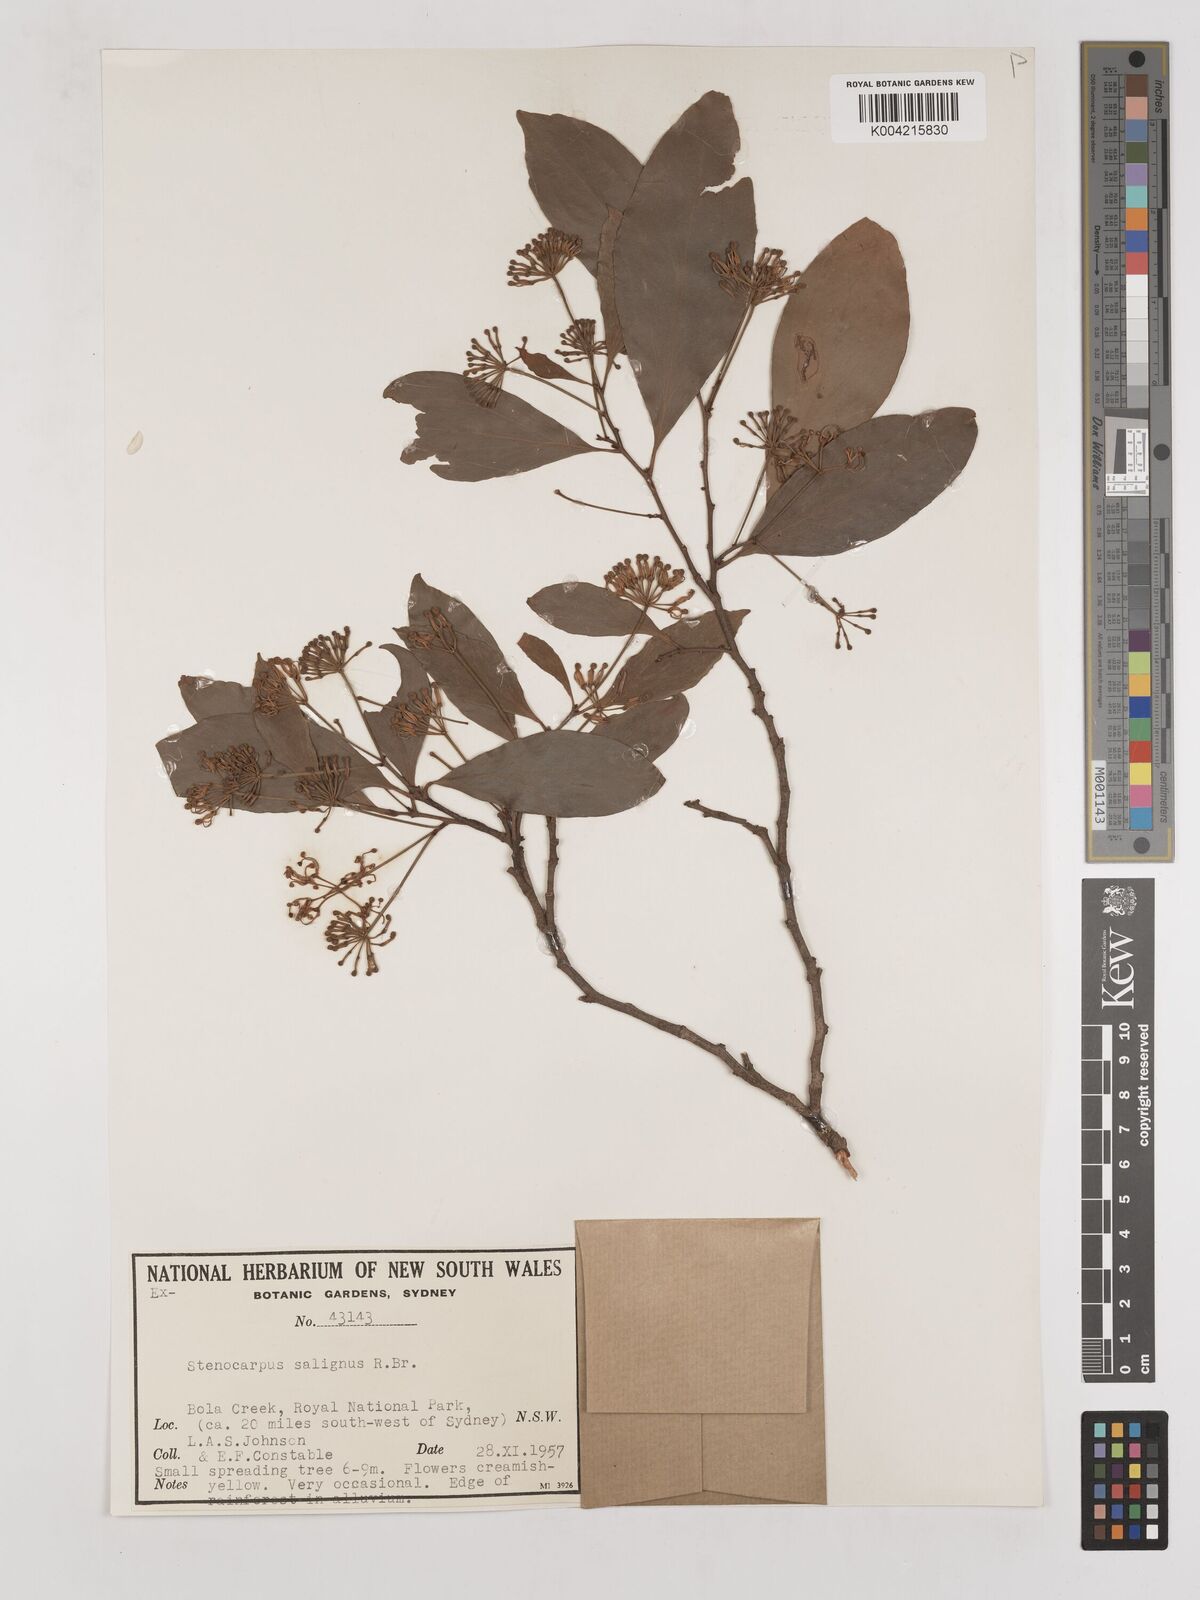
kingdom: Plantae
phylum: Tracheophyta
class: Magnoliopsida
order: Proteales
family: Proteaceae
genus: Stenocarpus
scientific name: Stenocarpus salignus
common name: Red silky-oak
